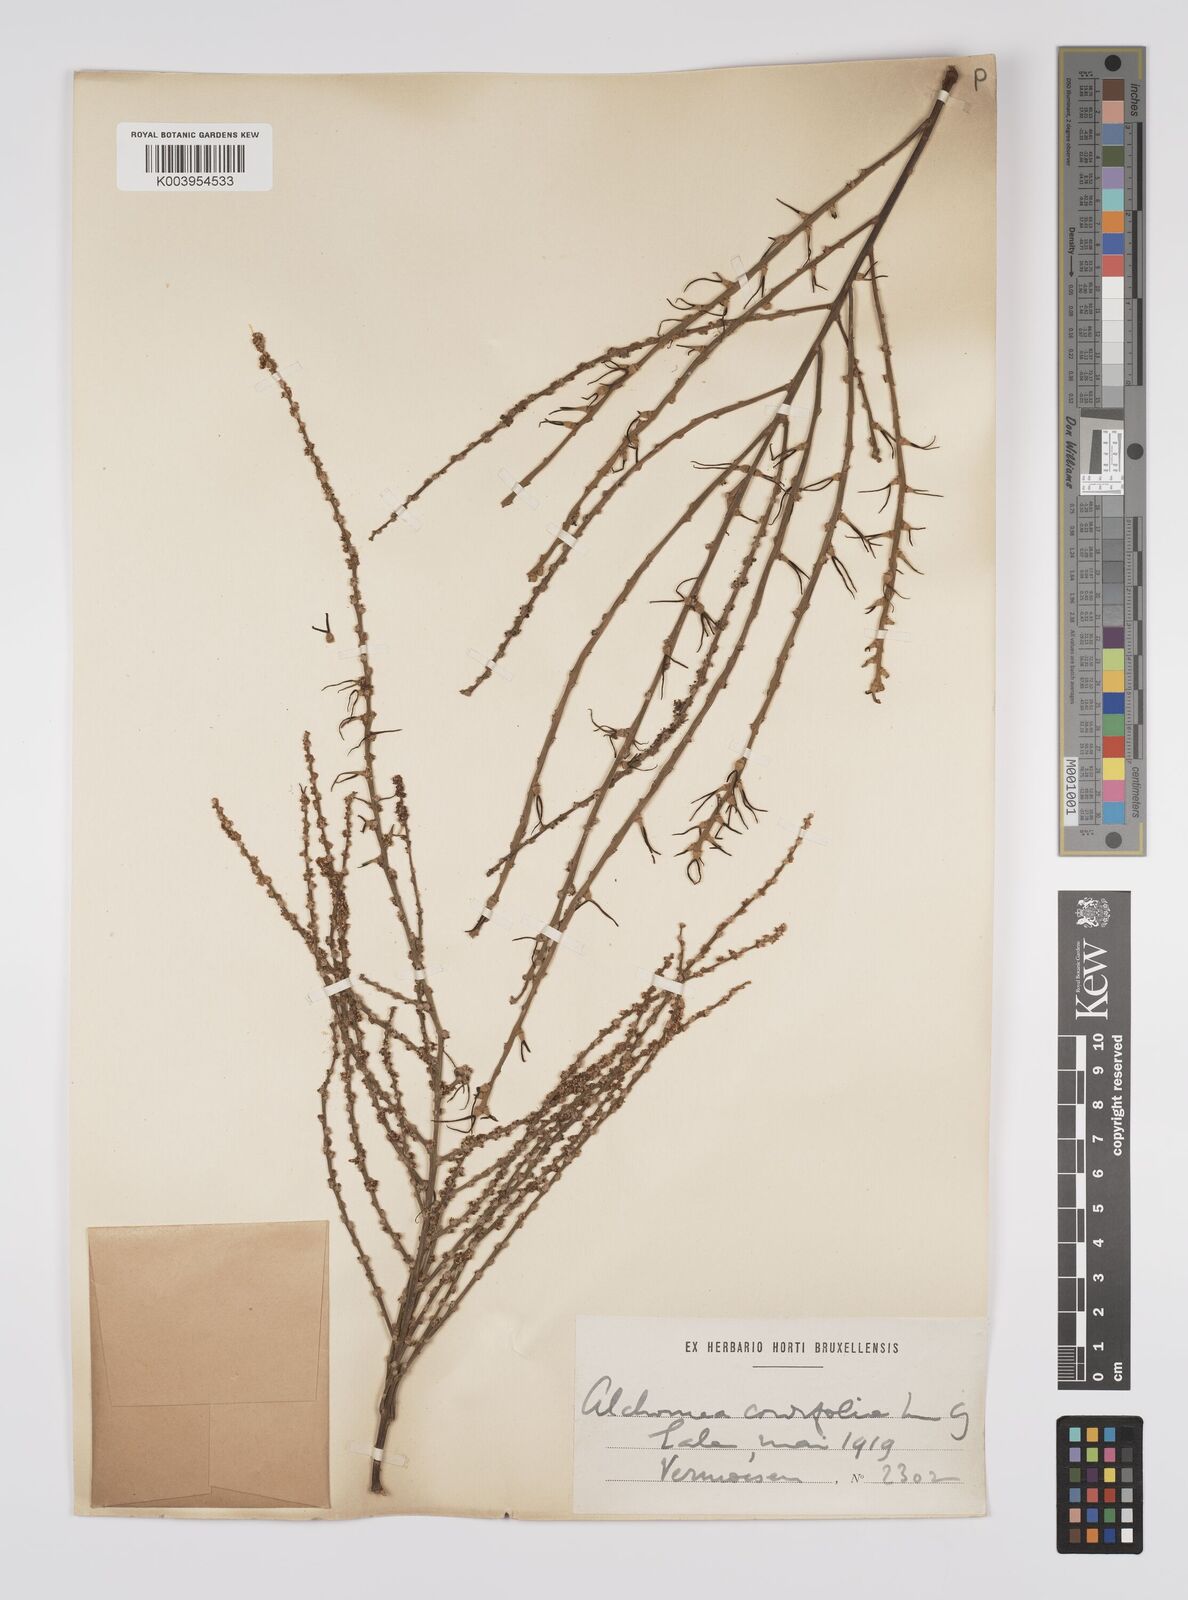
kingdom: Plantae
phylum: Tracheophyta
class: Magnoliopsida
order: Malpighiales
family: Euphorbiaceae
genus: Alchornea
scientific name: Alchornea cordifolia
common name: Christmasbush
